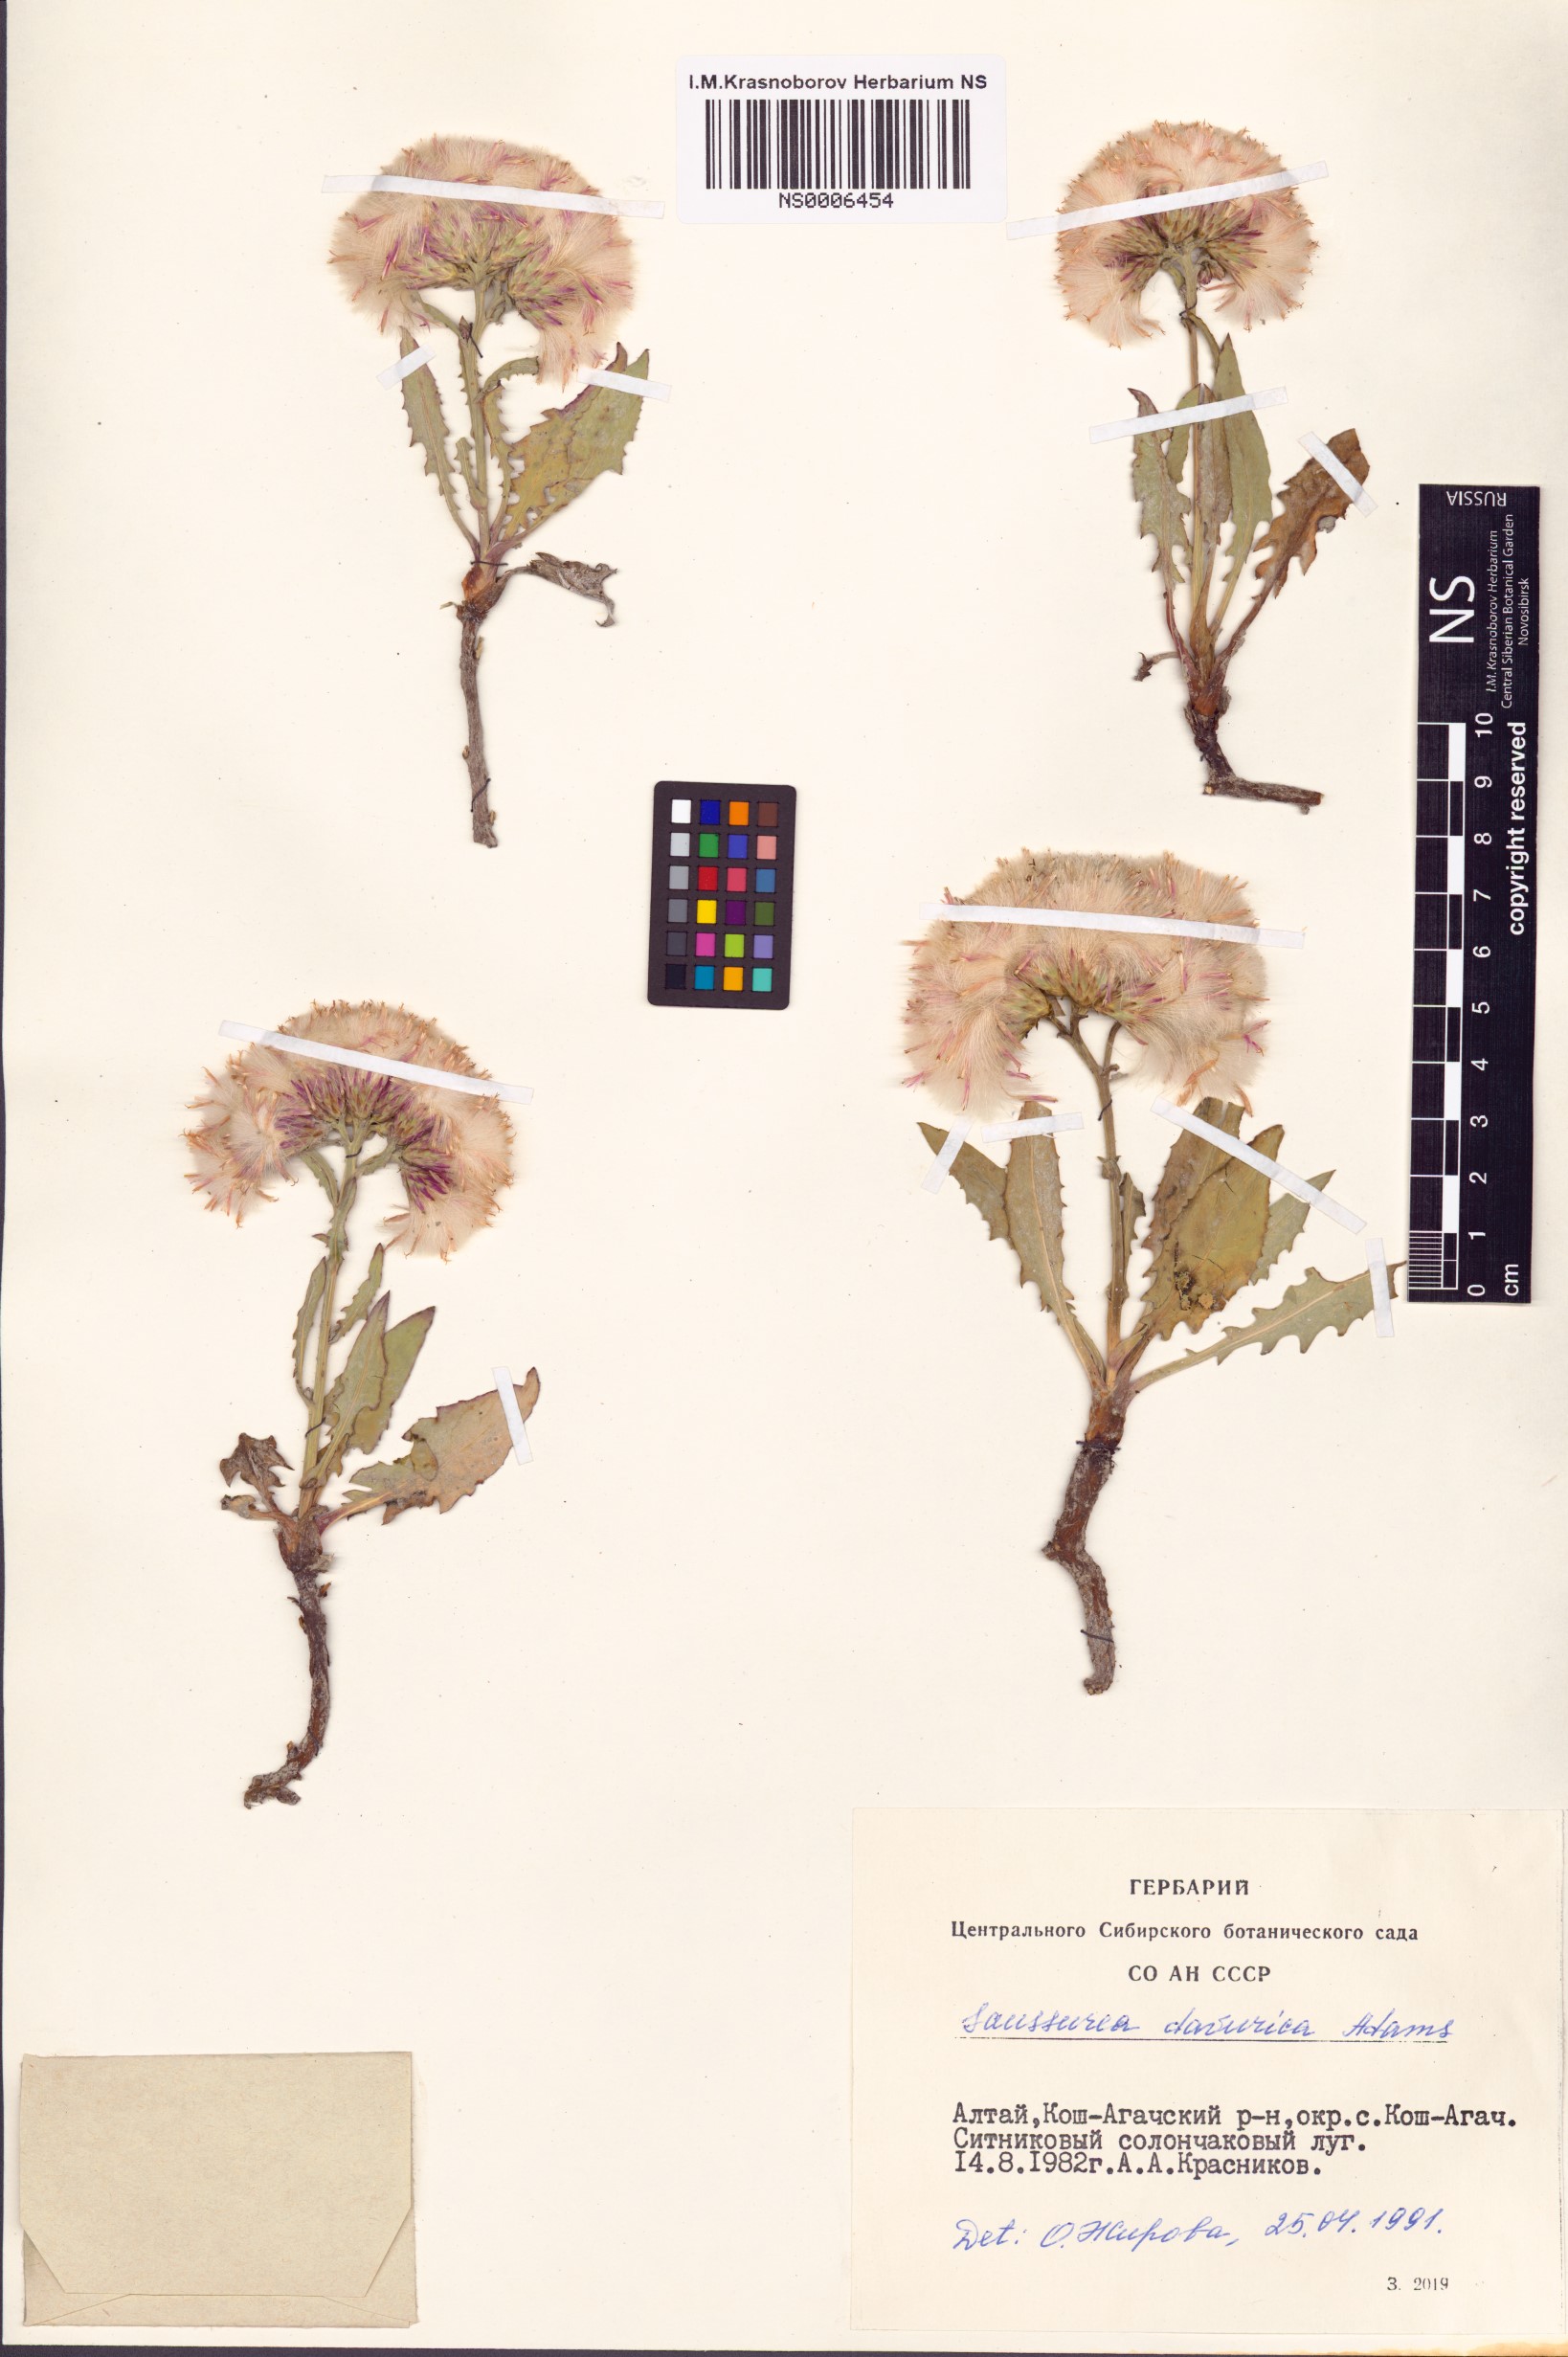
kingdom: Plantae
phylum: Tracheophyta
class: Magnoliopsida
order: Asterales
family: Asteraceae
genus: Saussurea
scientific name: Saussurea daurica
